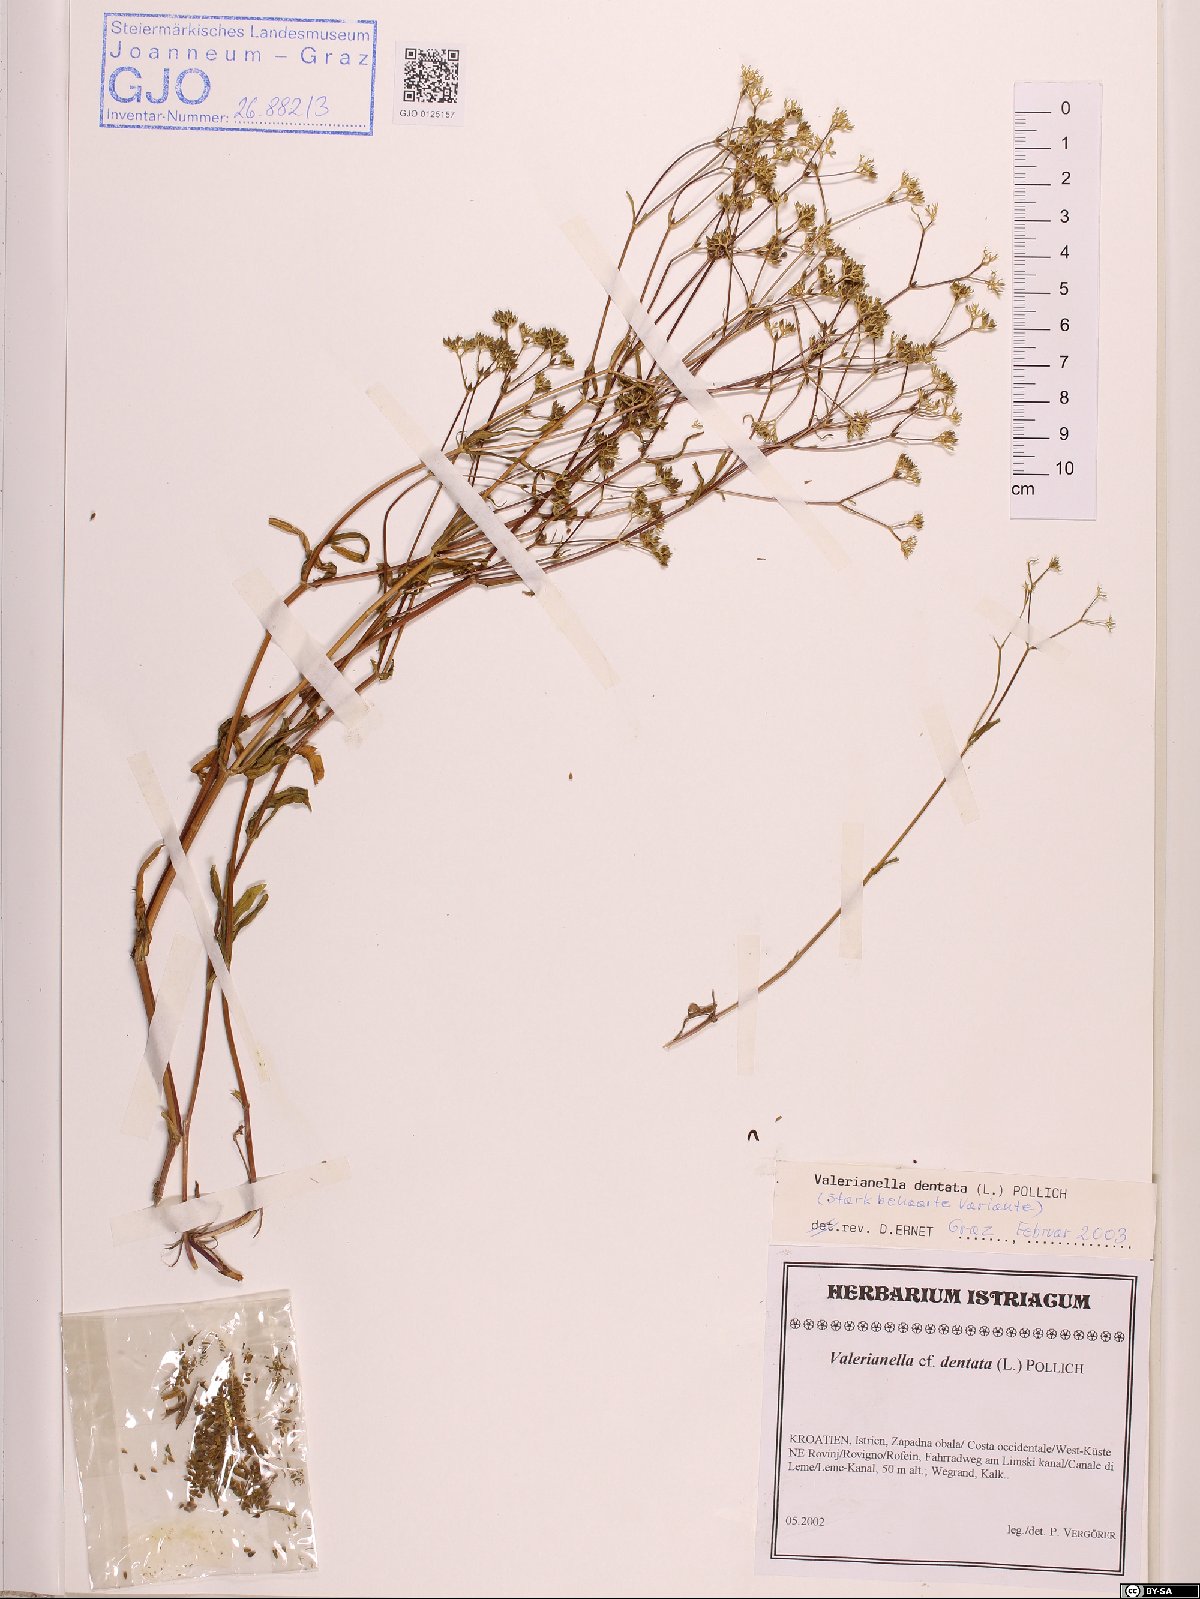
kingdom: Plantae
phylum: Tracheophyta
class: Magnoliopsida
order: Dipsacales
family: Caprifoliaceae
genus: Valerianella
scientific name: Valerianella dentata
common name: Narrow-fruited cornsalad
